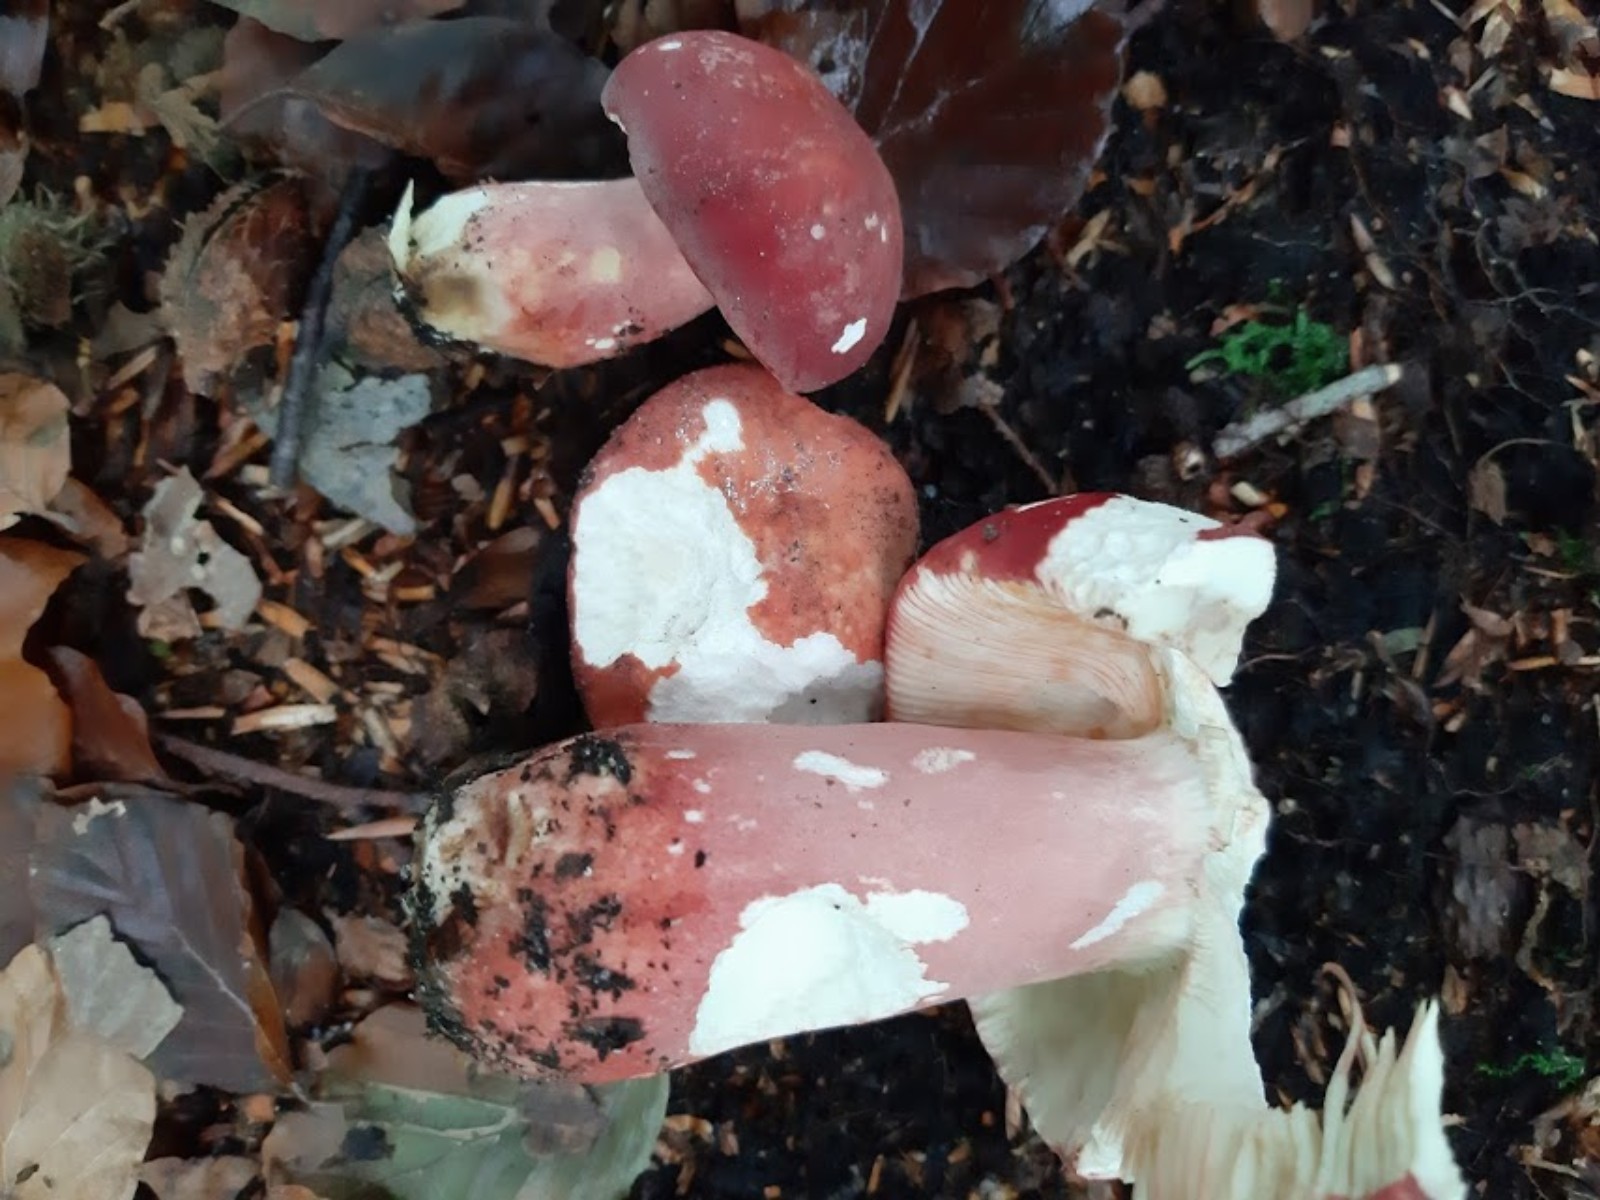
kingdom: Fungi
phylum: Basidiomycota
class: Agaricomycetes
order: Russulales
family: Russulaceae
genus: Russula
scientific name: Russula rosea
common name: fastkødet skørhat
